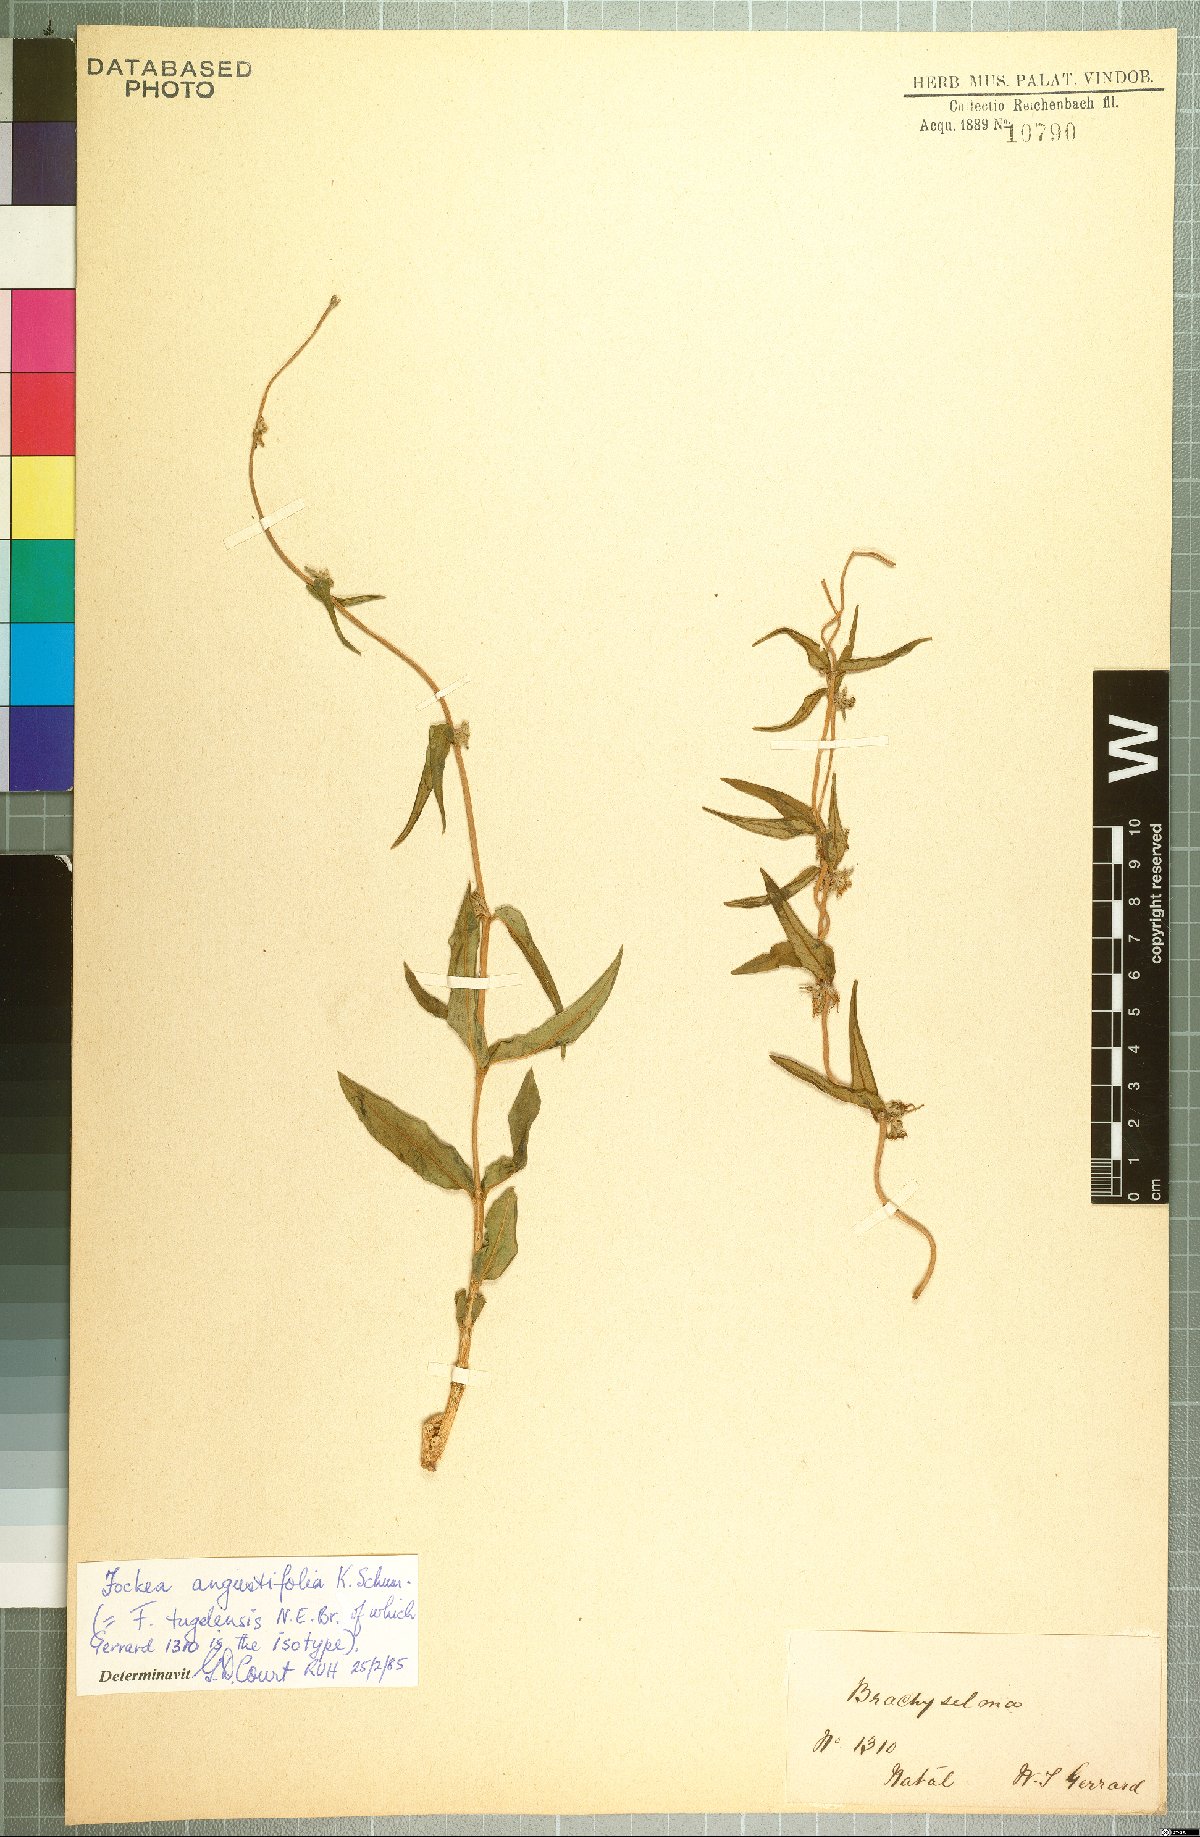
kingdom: Plantae
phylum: Tracheophyta
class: Magnoliopsida
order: Gentianales
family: Apocynaceae
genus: Fockea
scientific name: Fockea angustifolia
